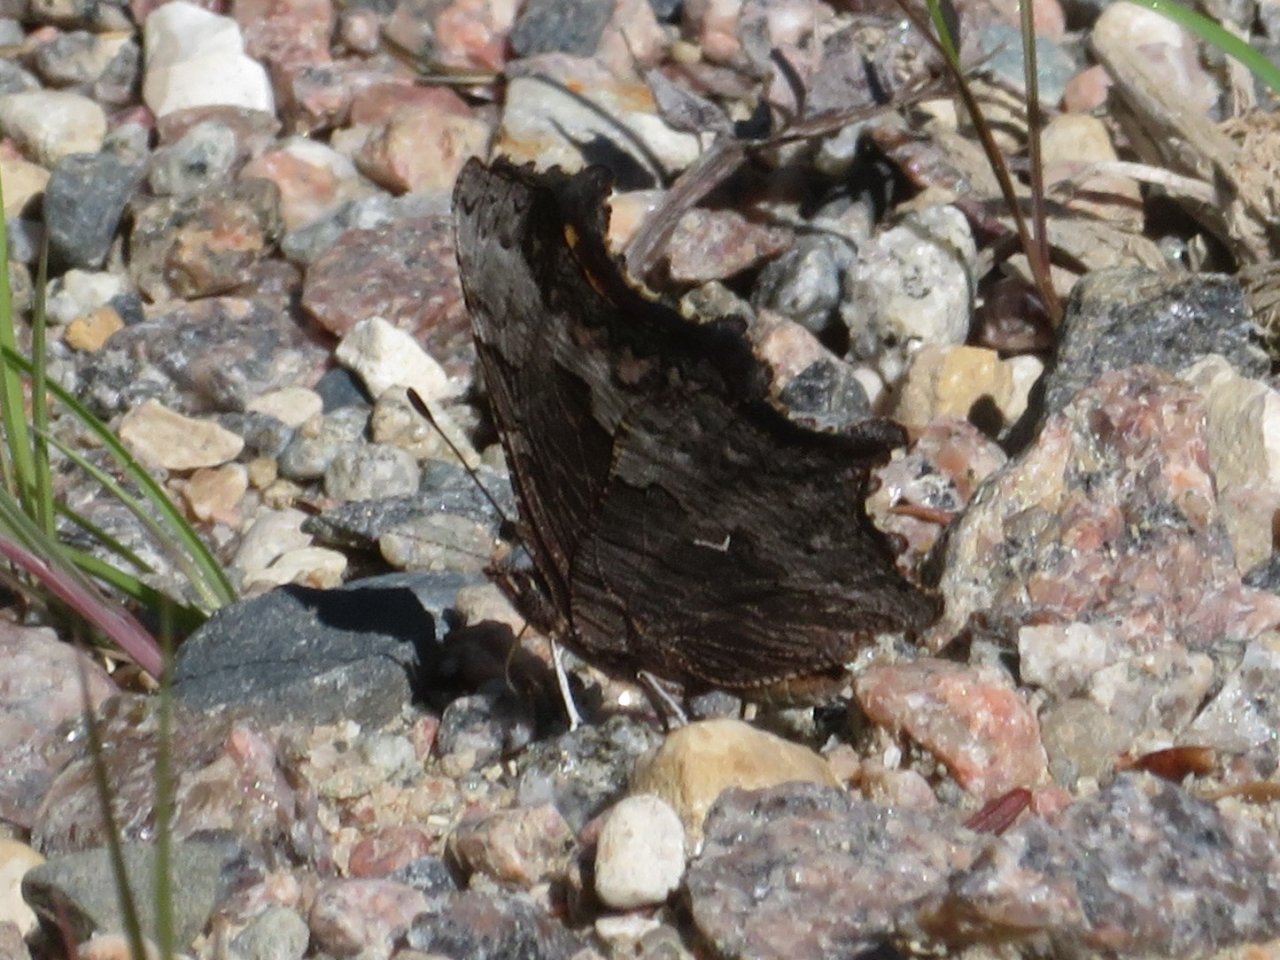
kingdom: Animalia
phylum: Arthropoda
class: Insecta
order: Lepidoptera
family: Nymphalidae
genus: Polygonia
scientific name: Polygonia progne
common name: Gray Comma
